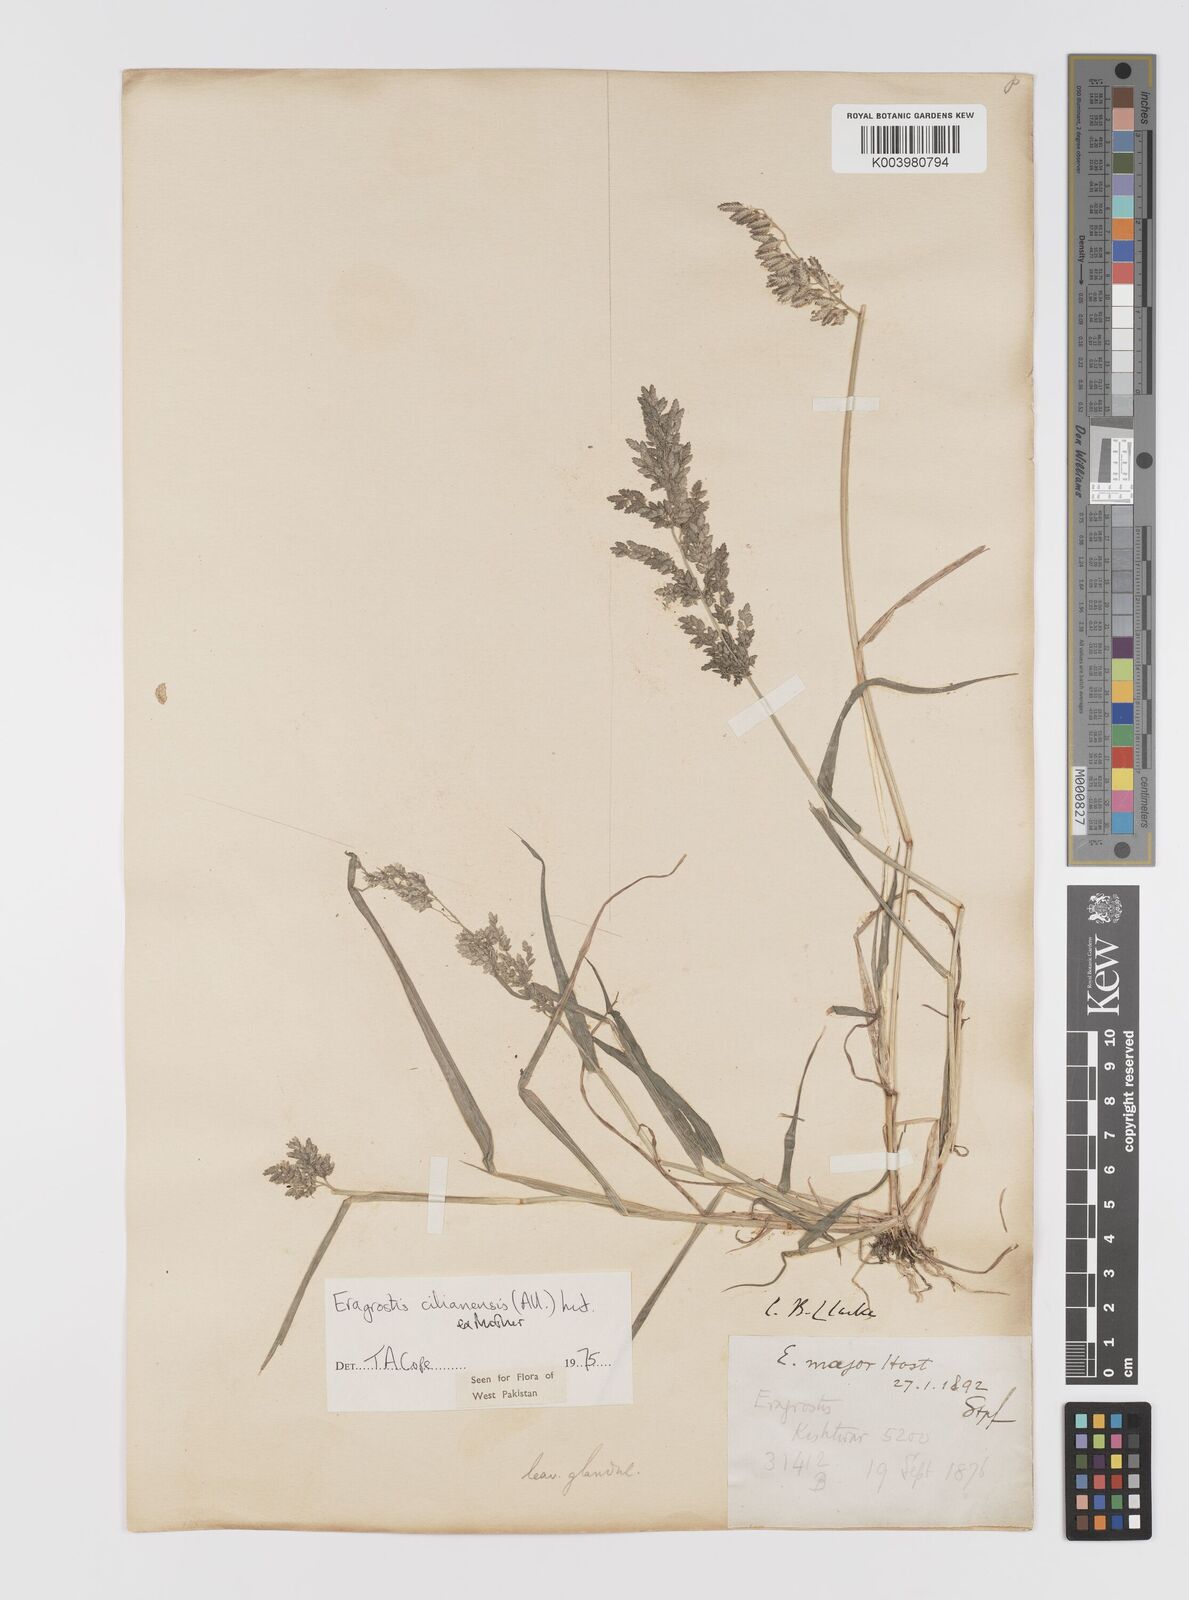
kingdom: Plantae
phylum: Tracheophyta
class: Liliopsida
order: Poales
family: Poaceae
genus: Eragrostis
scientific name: Eragrostis cilianensis
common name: Stinkgrass
